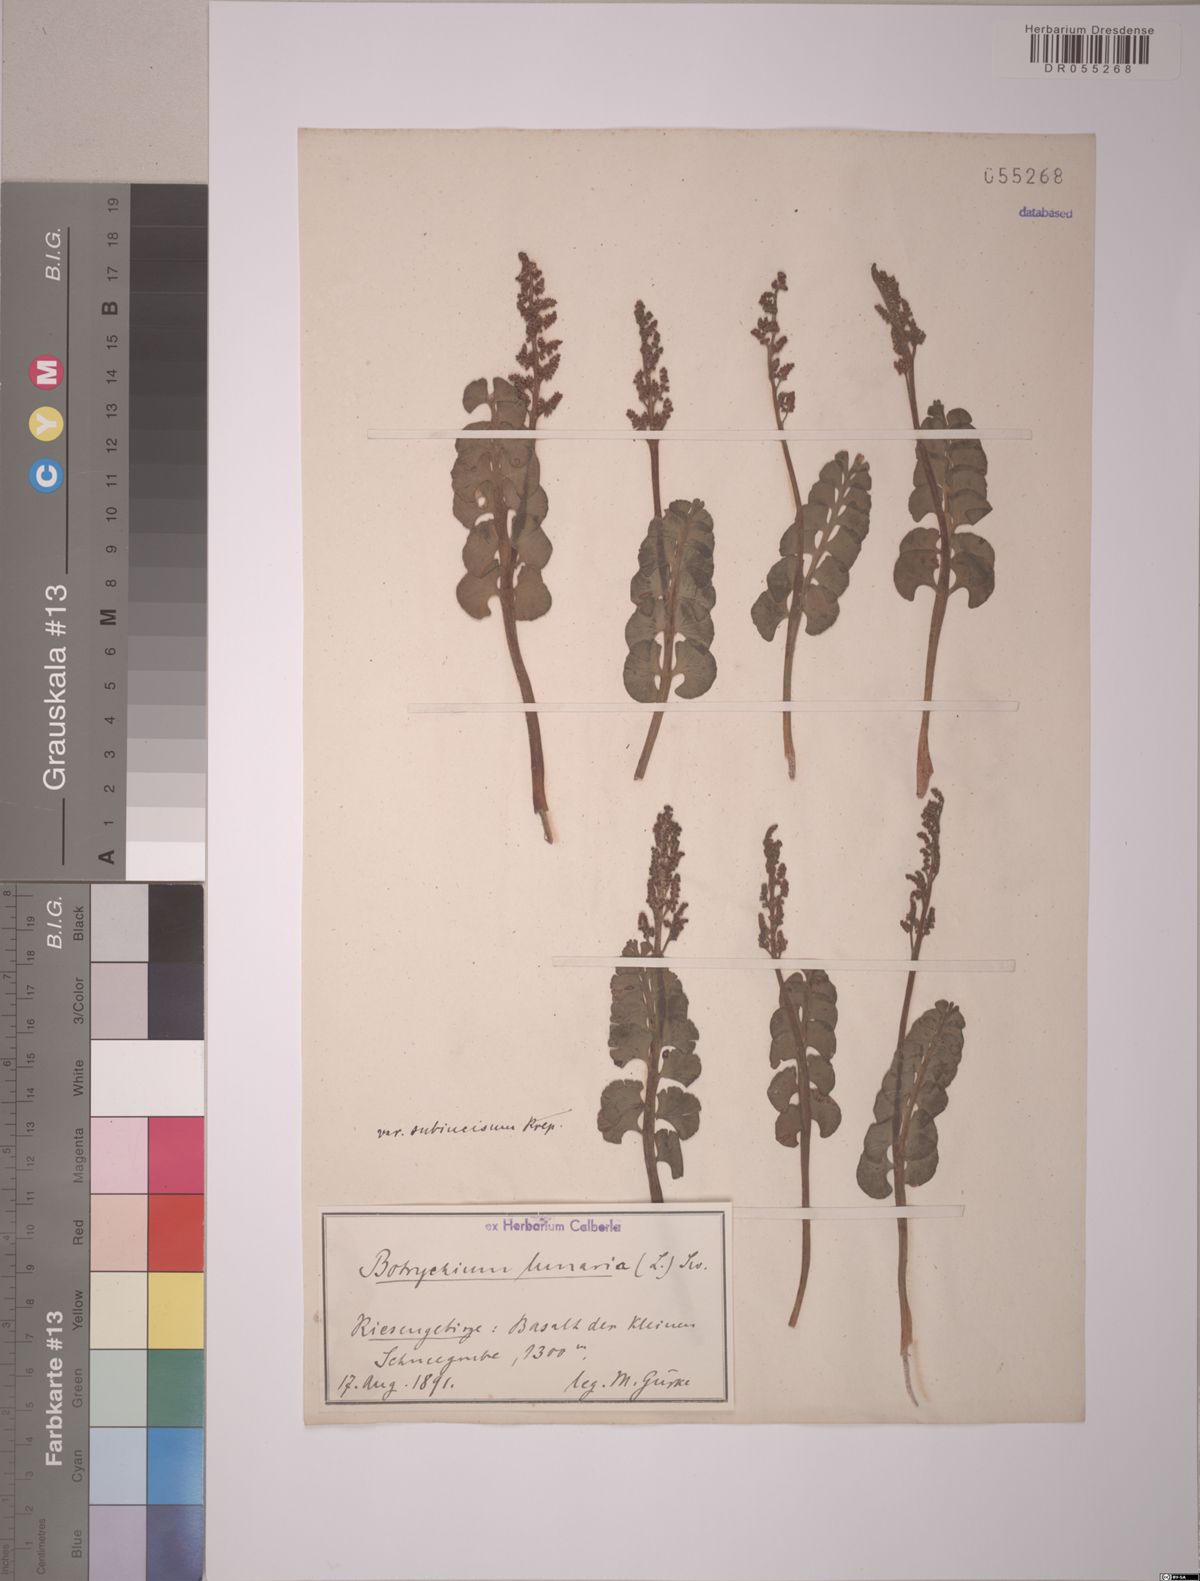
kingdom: Plantae
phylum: Tracheophyta
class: Polypodiopsida
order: Ophioglossales
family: Ophioglossaceae
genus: Botrychium
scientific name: Botrychium lunaria
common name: Moonwort
